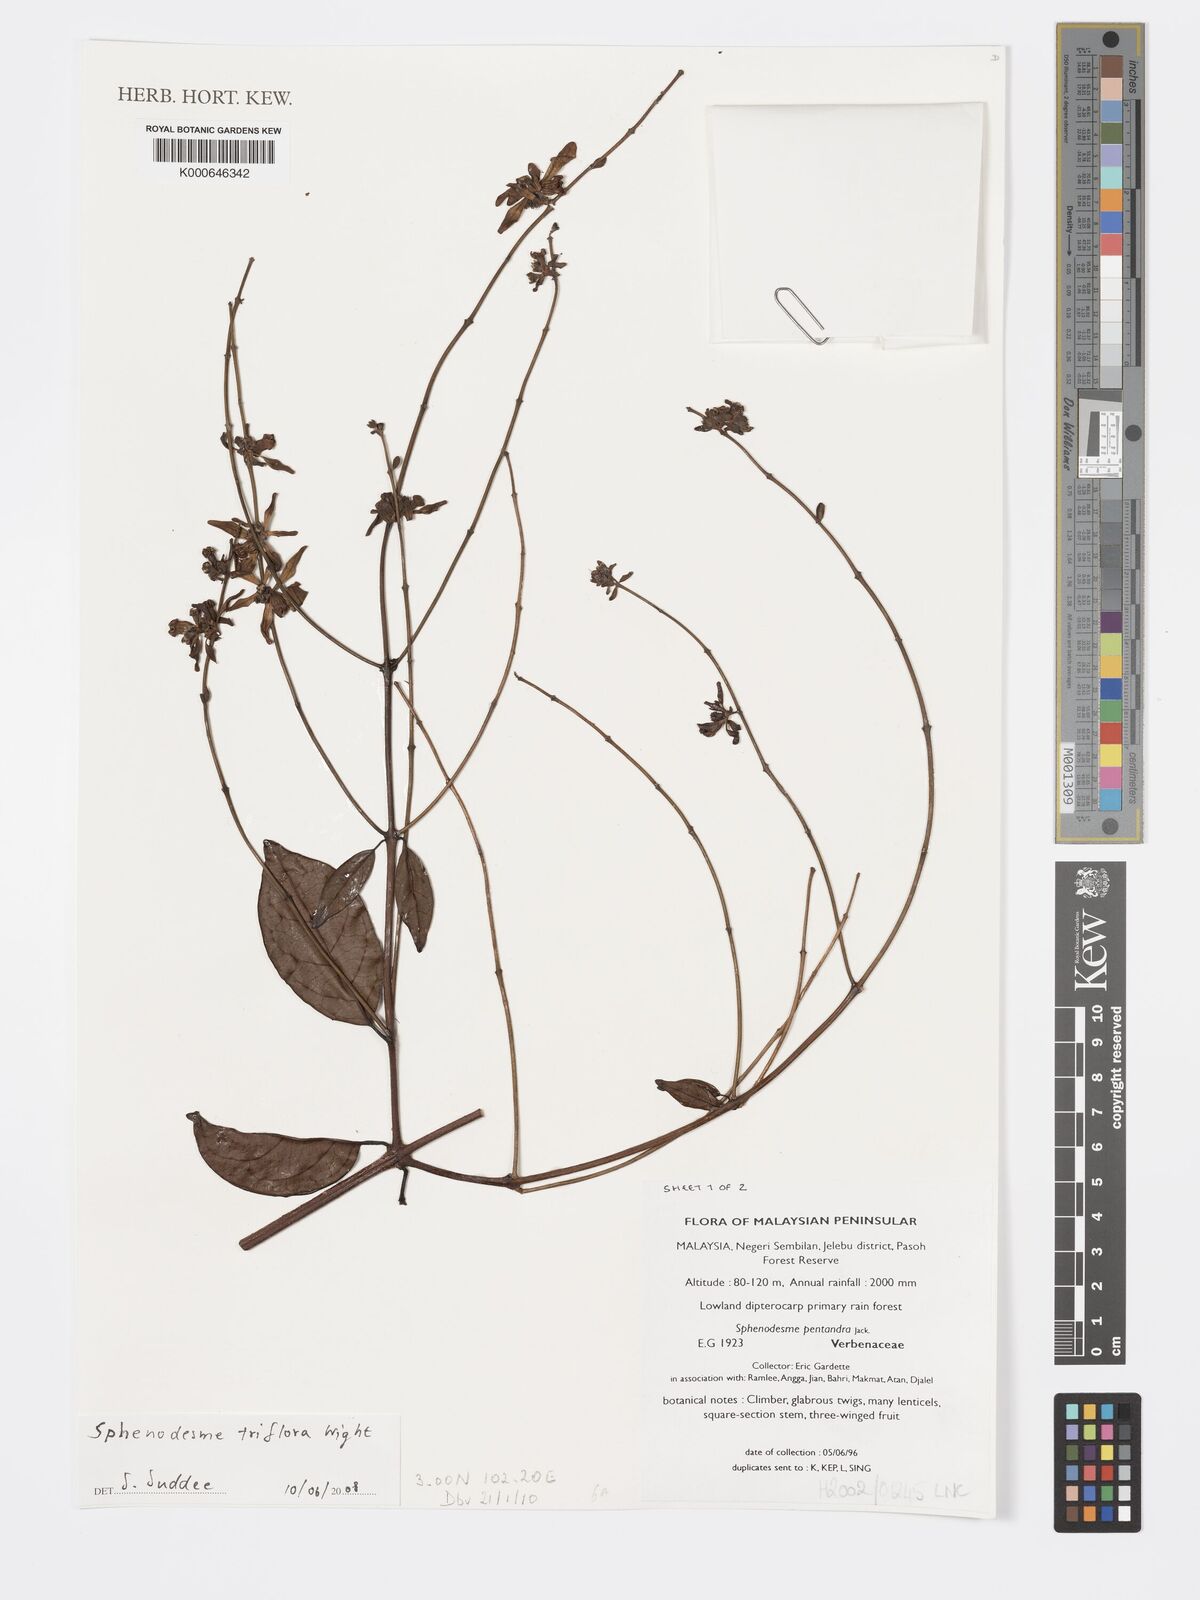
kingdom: Plantae
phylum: Tracheophyta
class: Magnoliopsida
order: Lamiales
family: Lamiaceae
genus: Sphenodesme
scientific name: Sphenodesme
